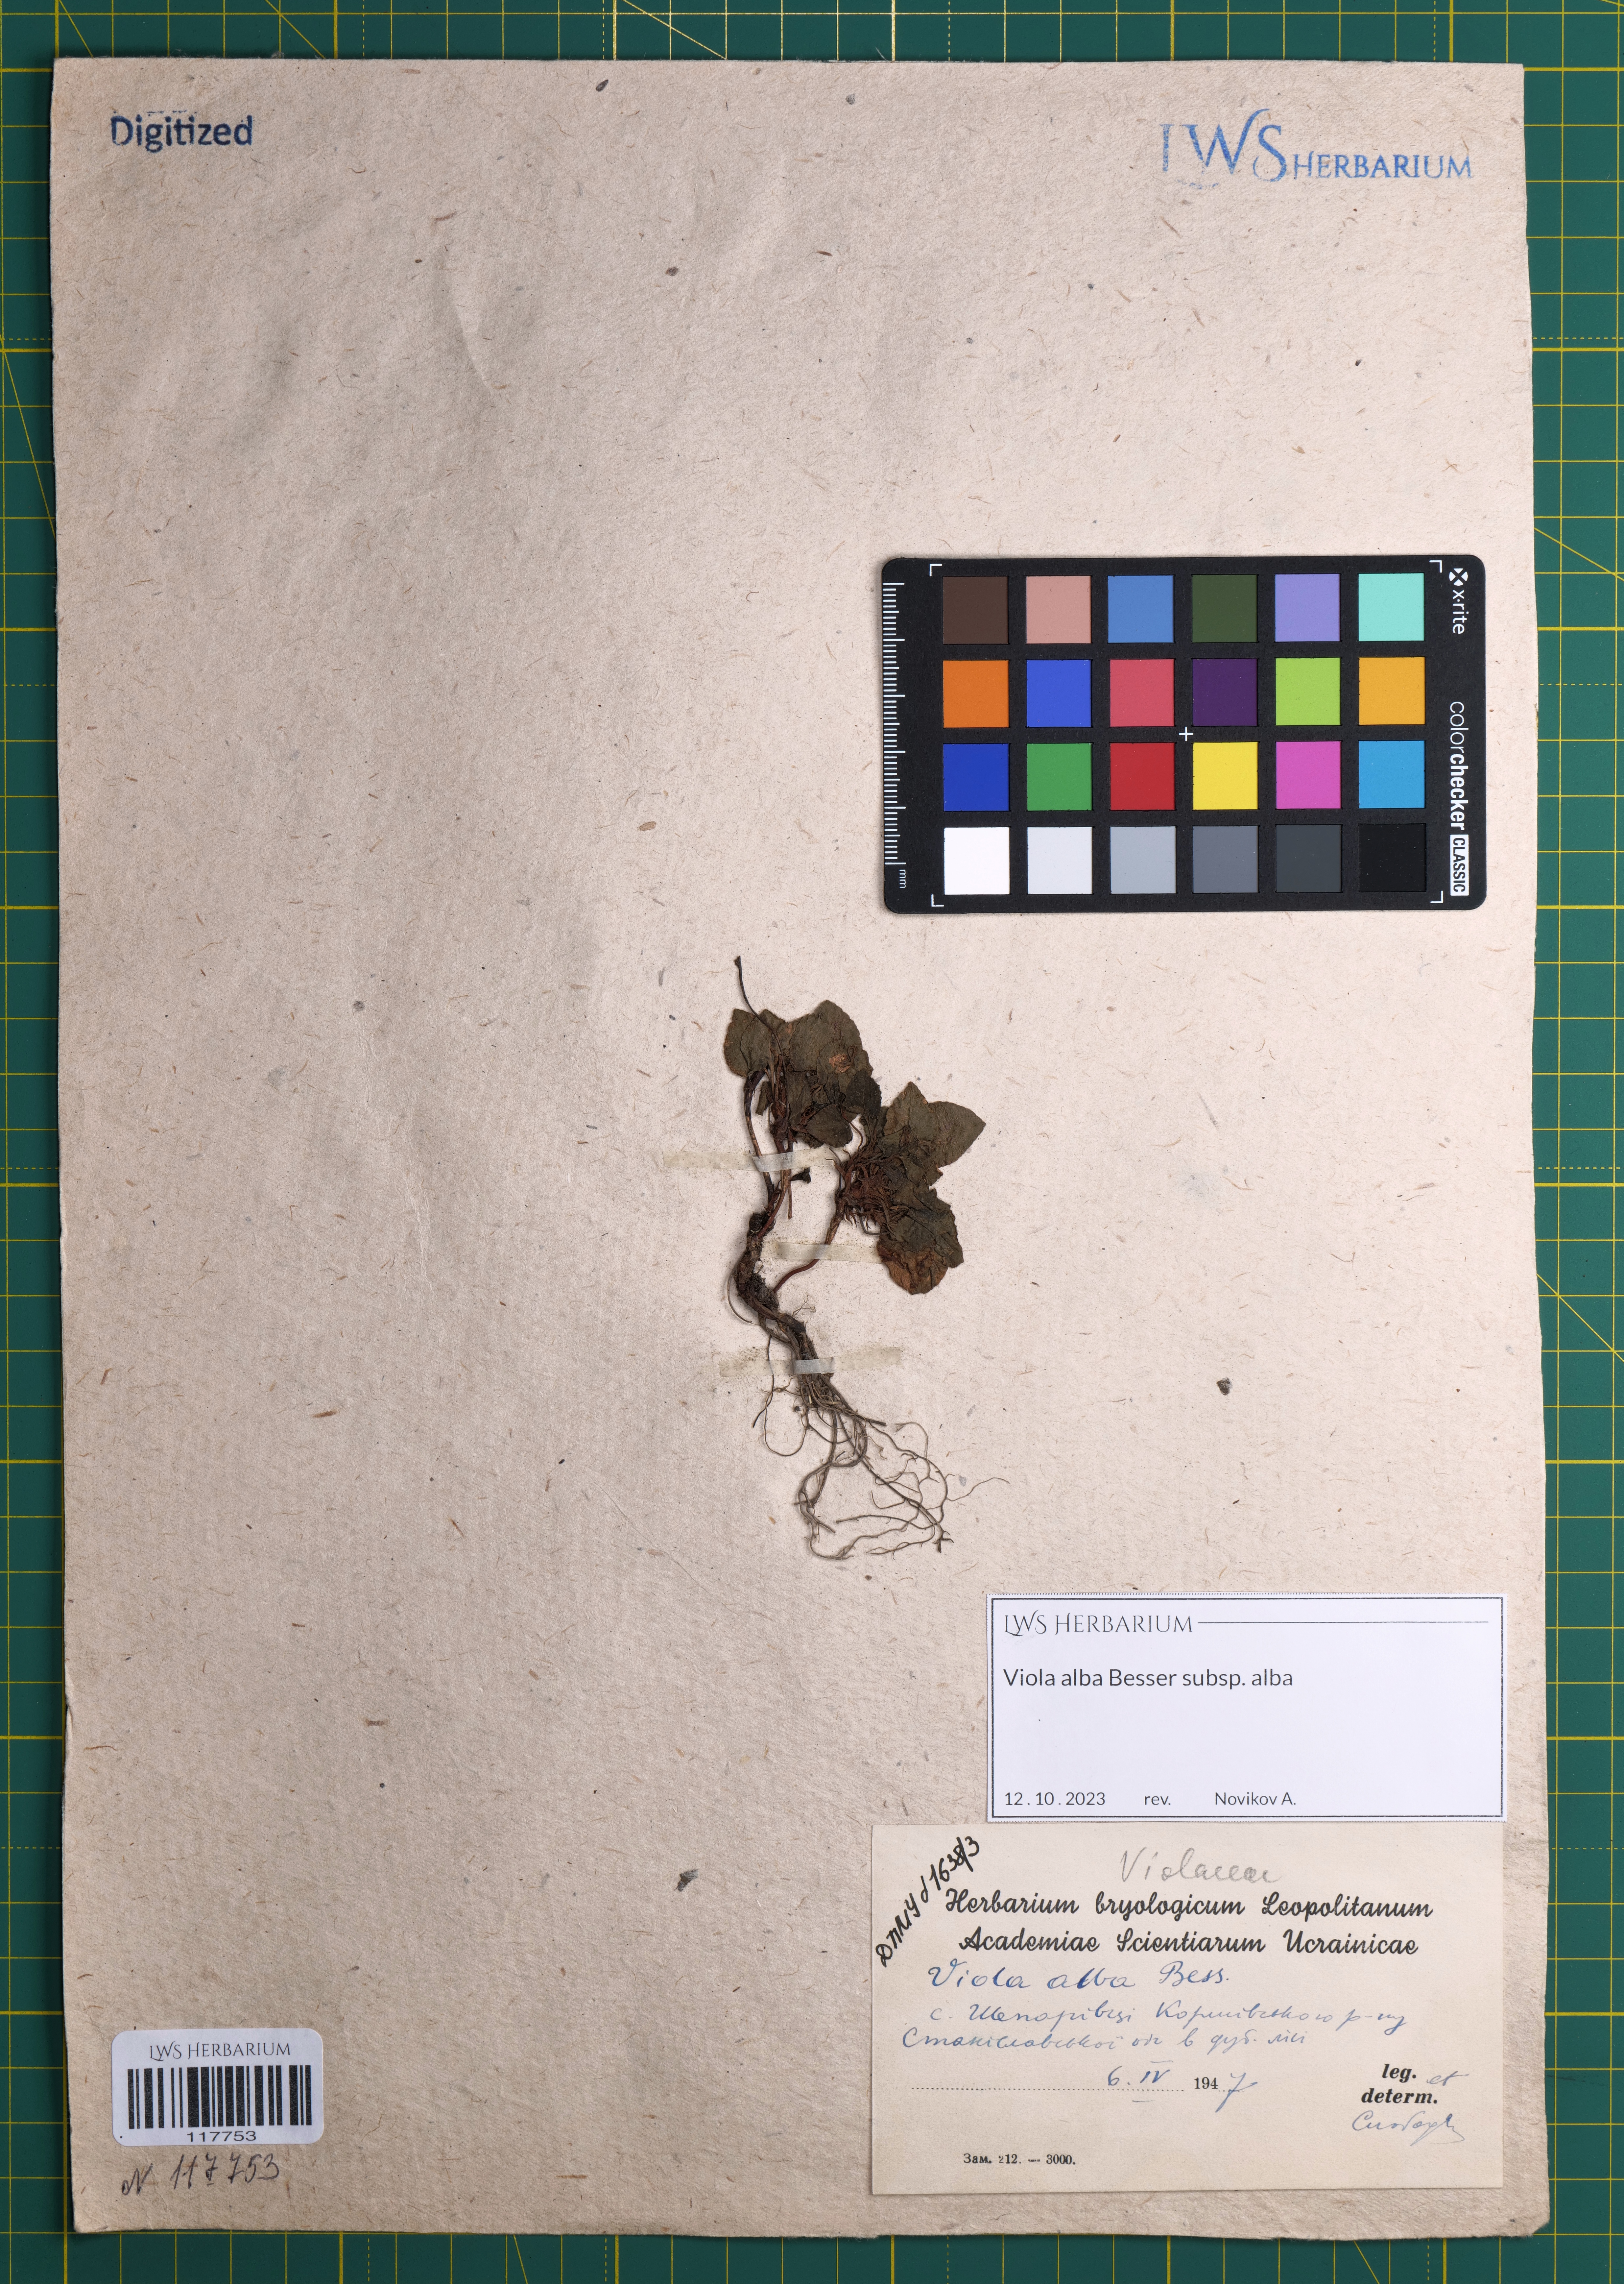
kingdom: Plantae
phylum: Tracheophyta
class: Magnoliopsida
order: Malpighiales
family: Violaceae
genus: Viola
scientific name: Viola alba
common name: White violet
